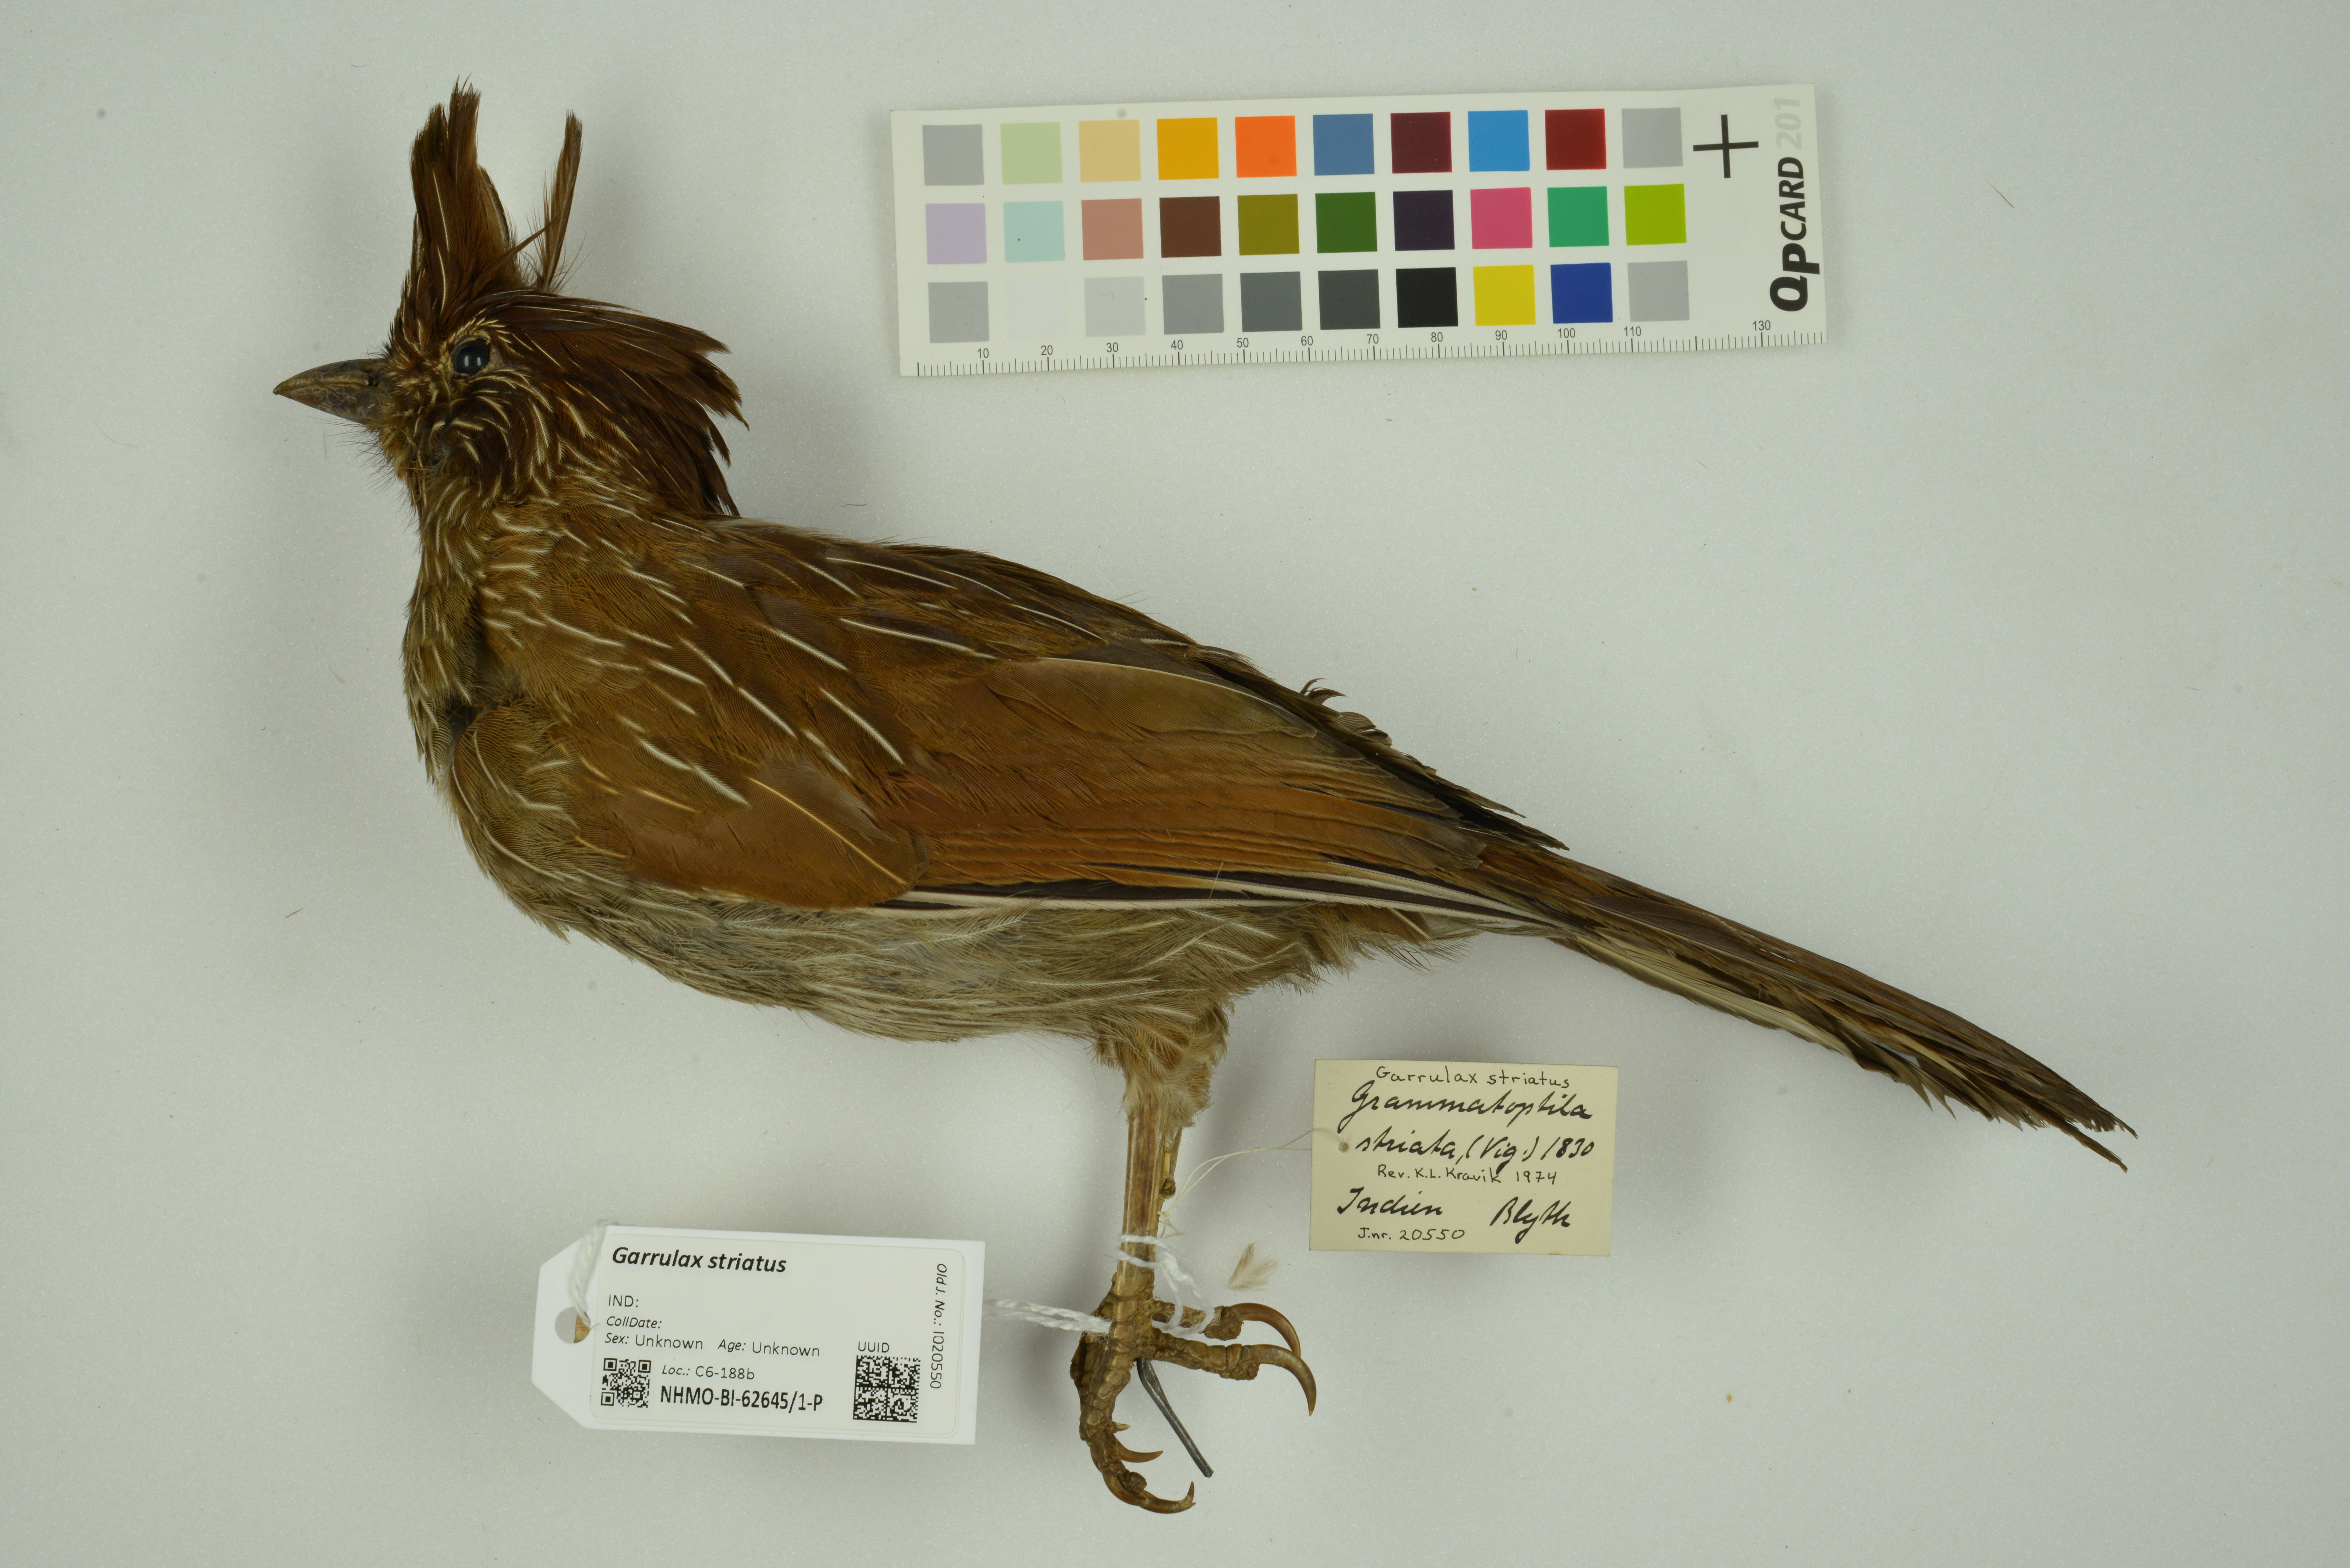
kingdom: Animalia
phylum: Chordata
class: Aves
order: Passeriformes
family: Leiothrichidae
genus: Garrulax
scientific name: Garrulax striatus
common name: Striated laughingthrush
